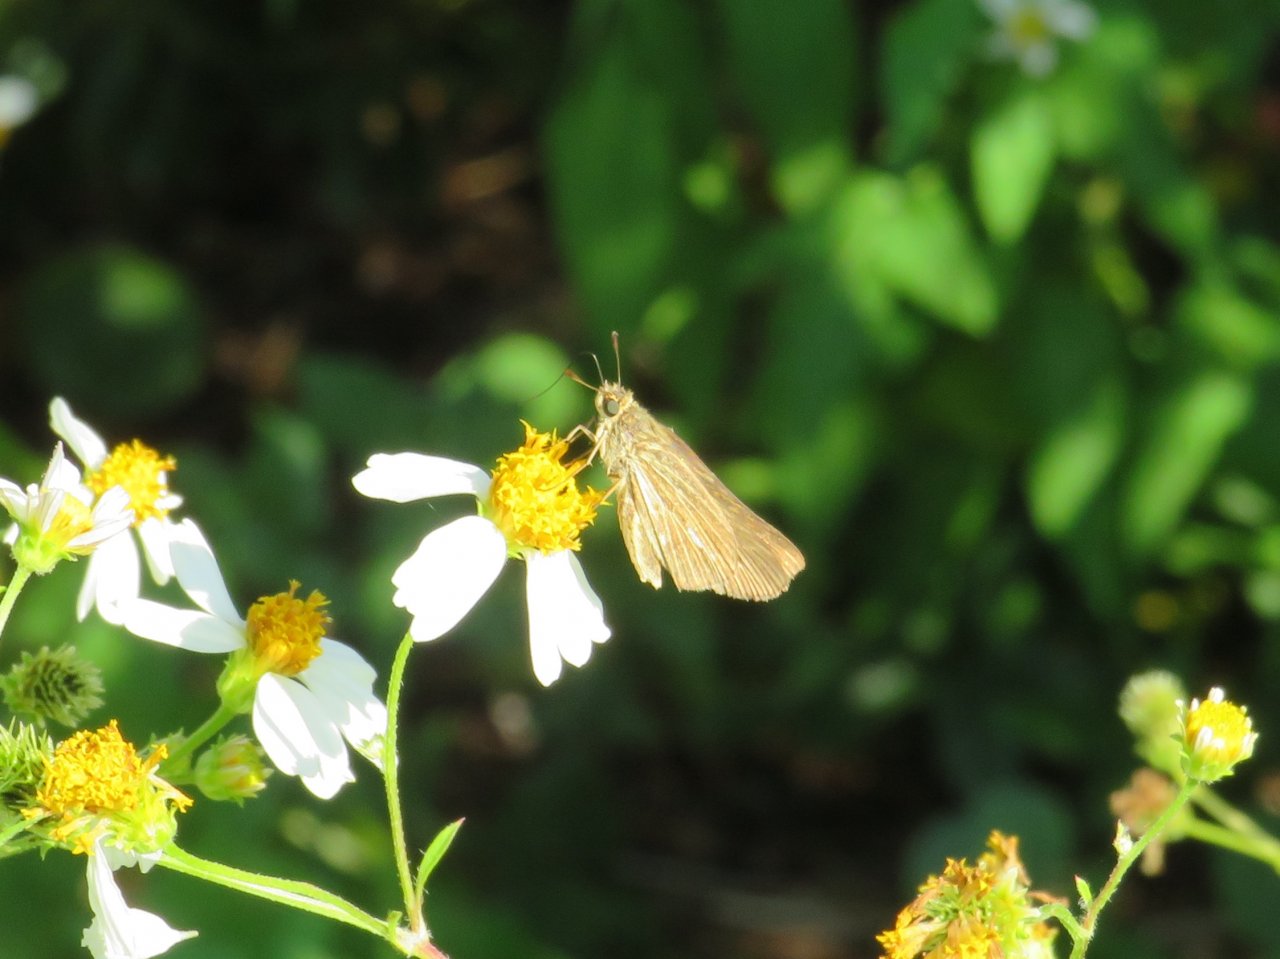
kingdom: Animalia
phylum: Arthropoda
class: Insecta
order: Lepidoptera
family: Hesperiidae
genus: Panoquina
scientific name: Panoquina panoquin
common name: Salt Marsh Skipper
